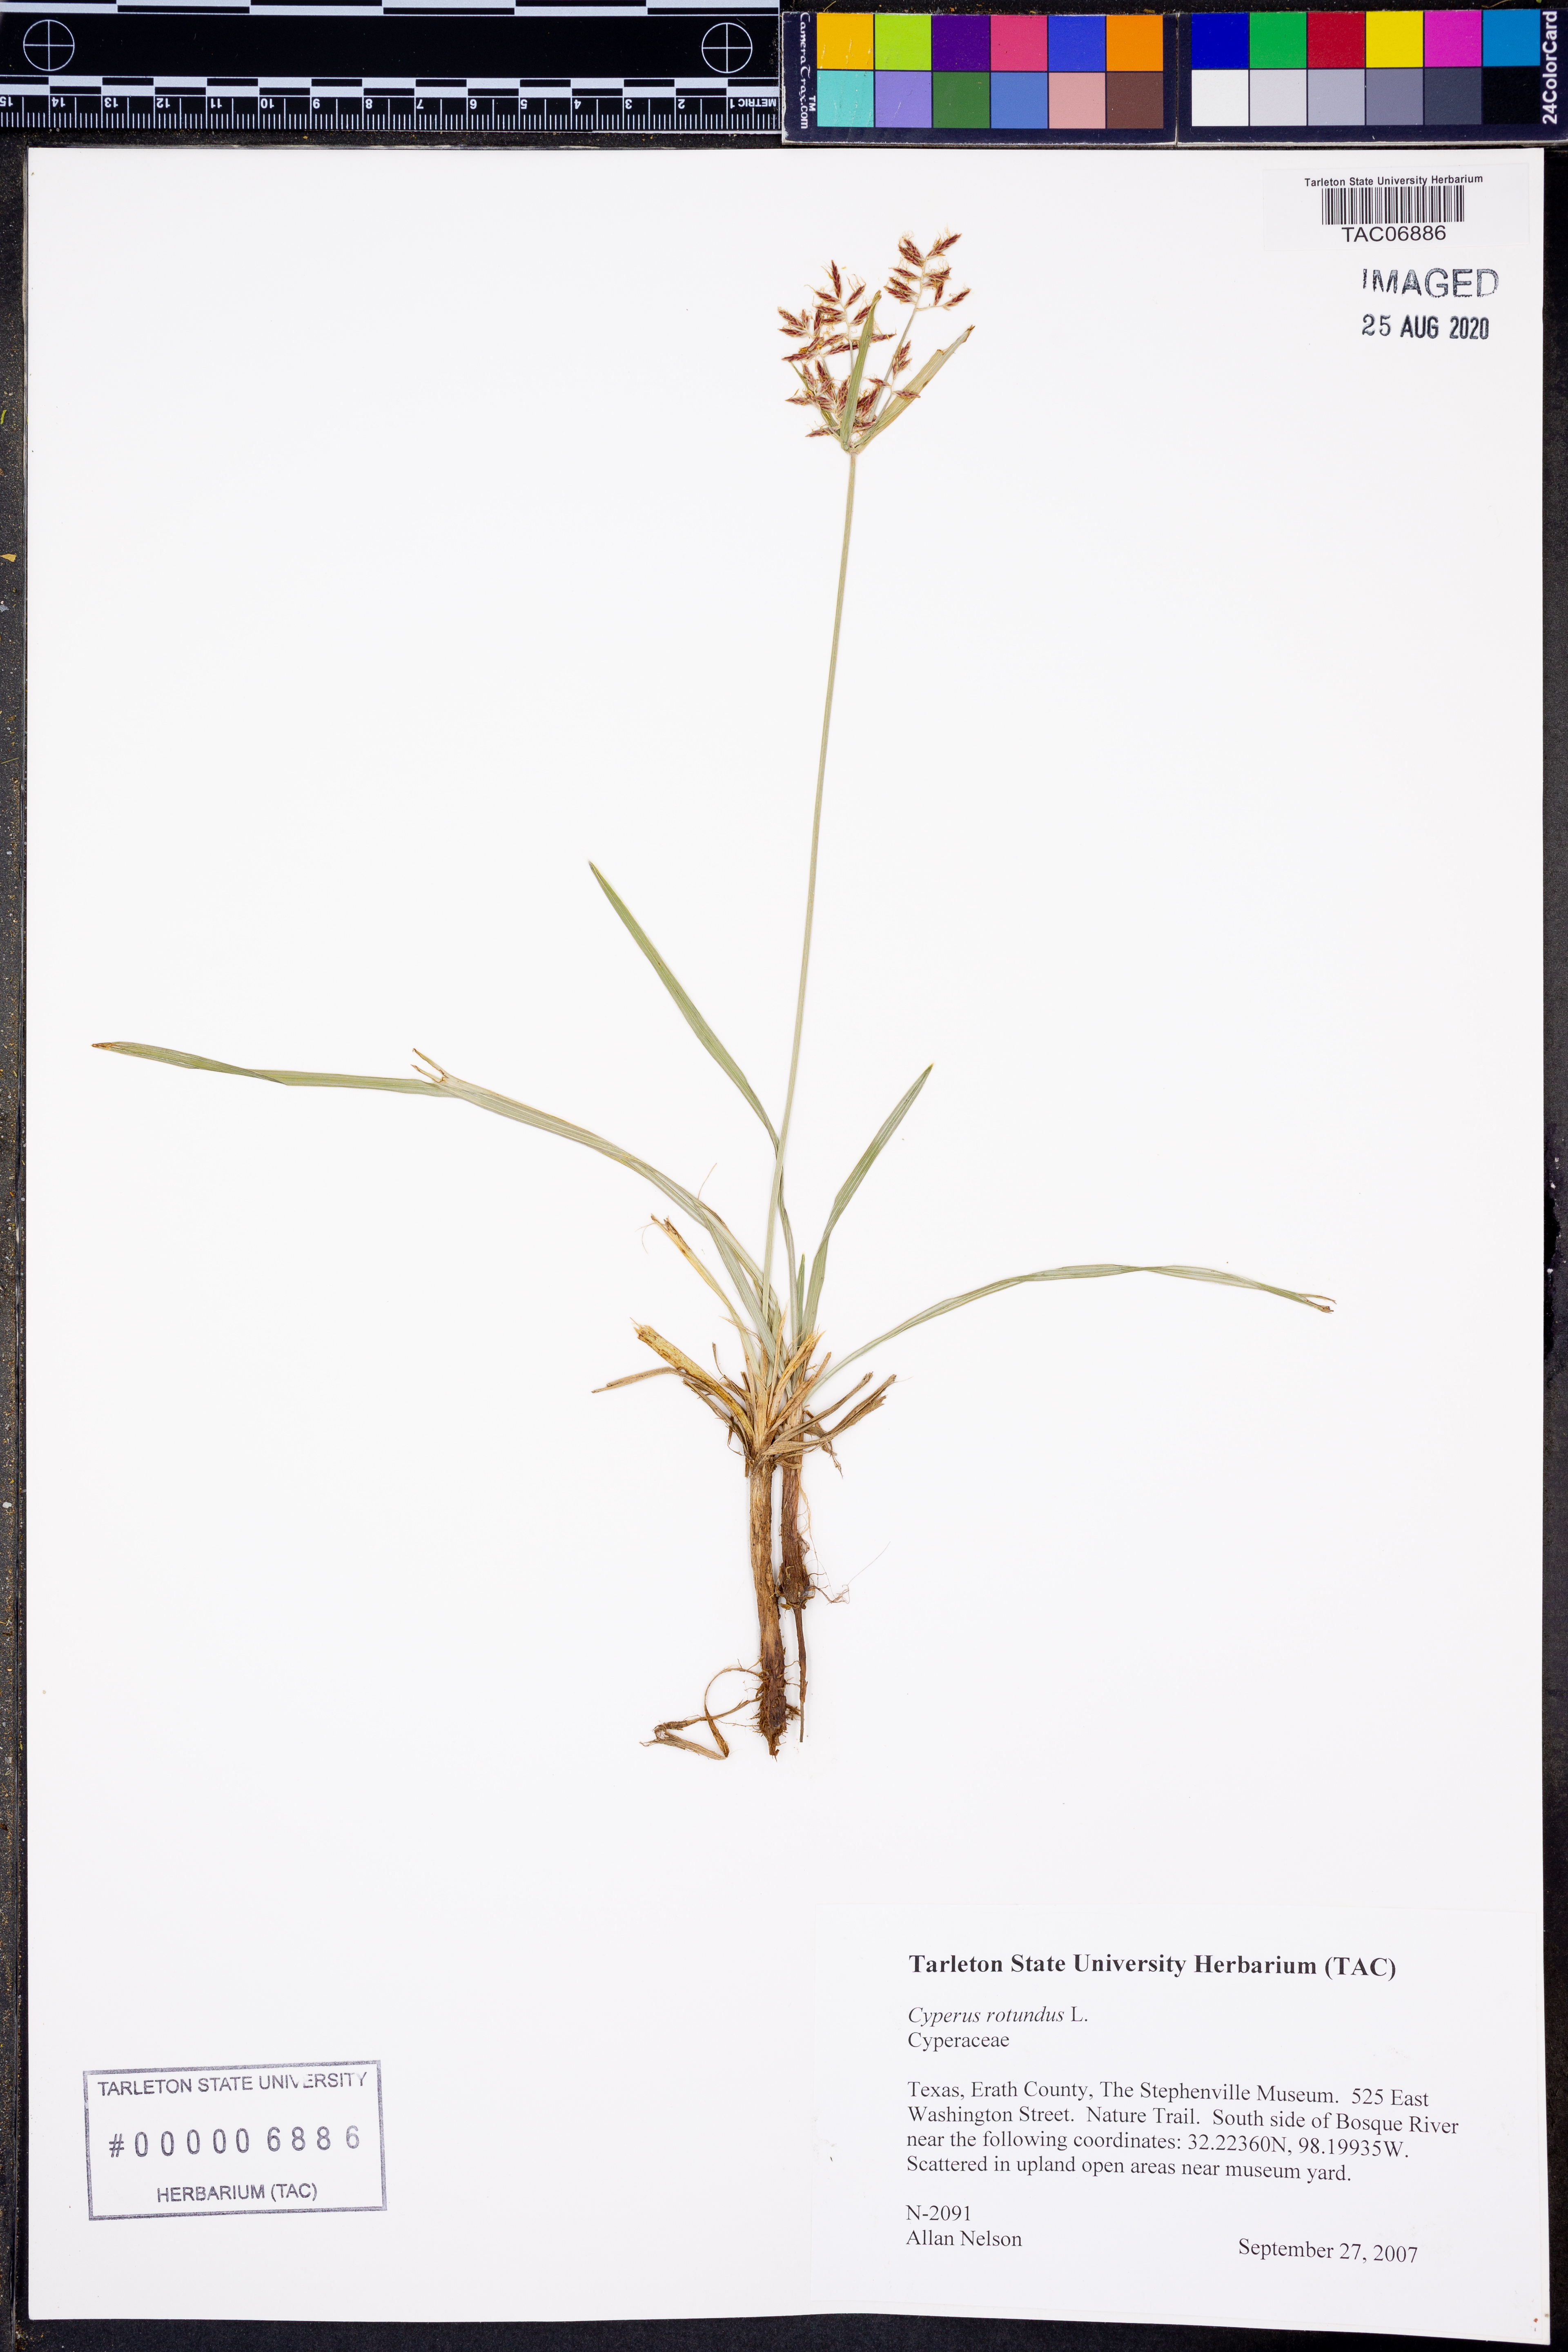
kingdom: Plantae
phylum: Tracheophyta
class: Liliopsida
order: Poales
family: Cyperaceae
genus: Cyperus
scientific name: Cyperus rotundus
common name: Nutgrass
